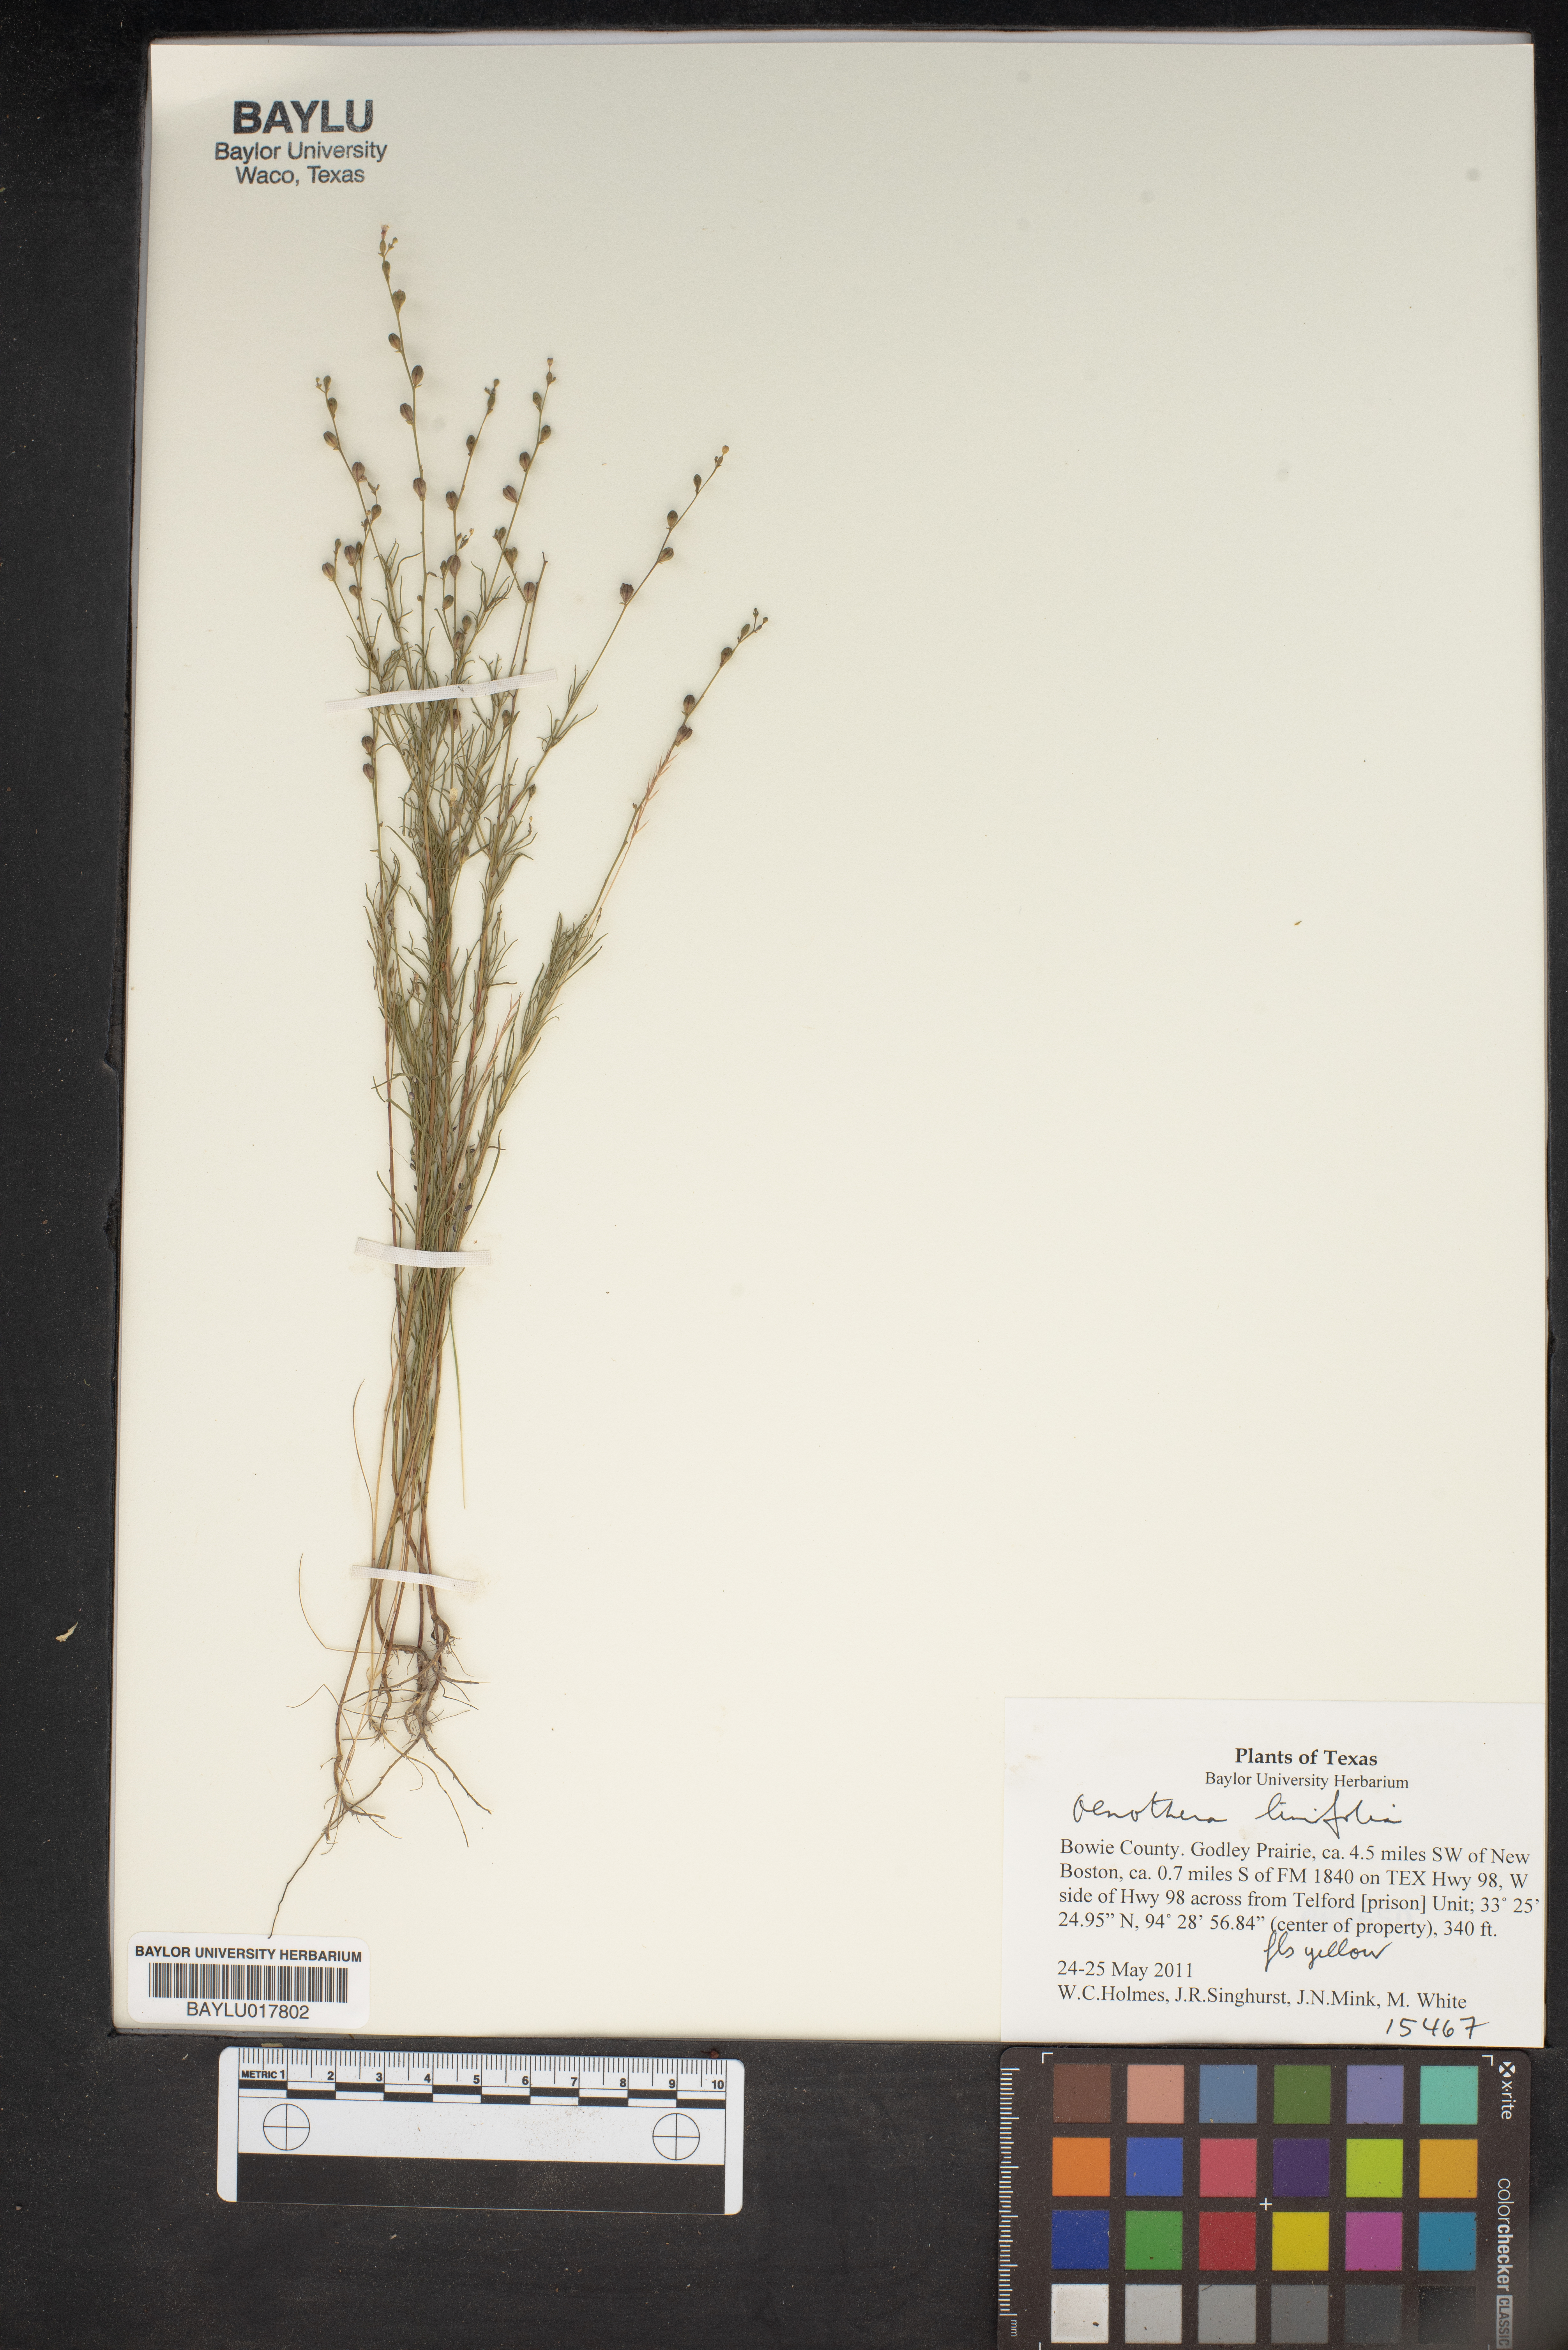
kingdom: Plantae
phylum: Tracheophyta
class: Magnoliopsida
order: Myrtales
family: Onagraceae
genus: Oenothera
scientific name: Oenothera linifolia
